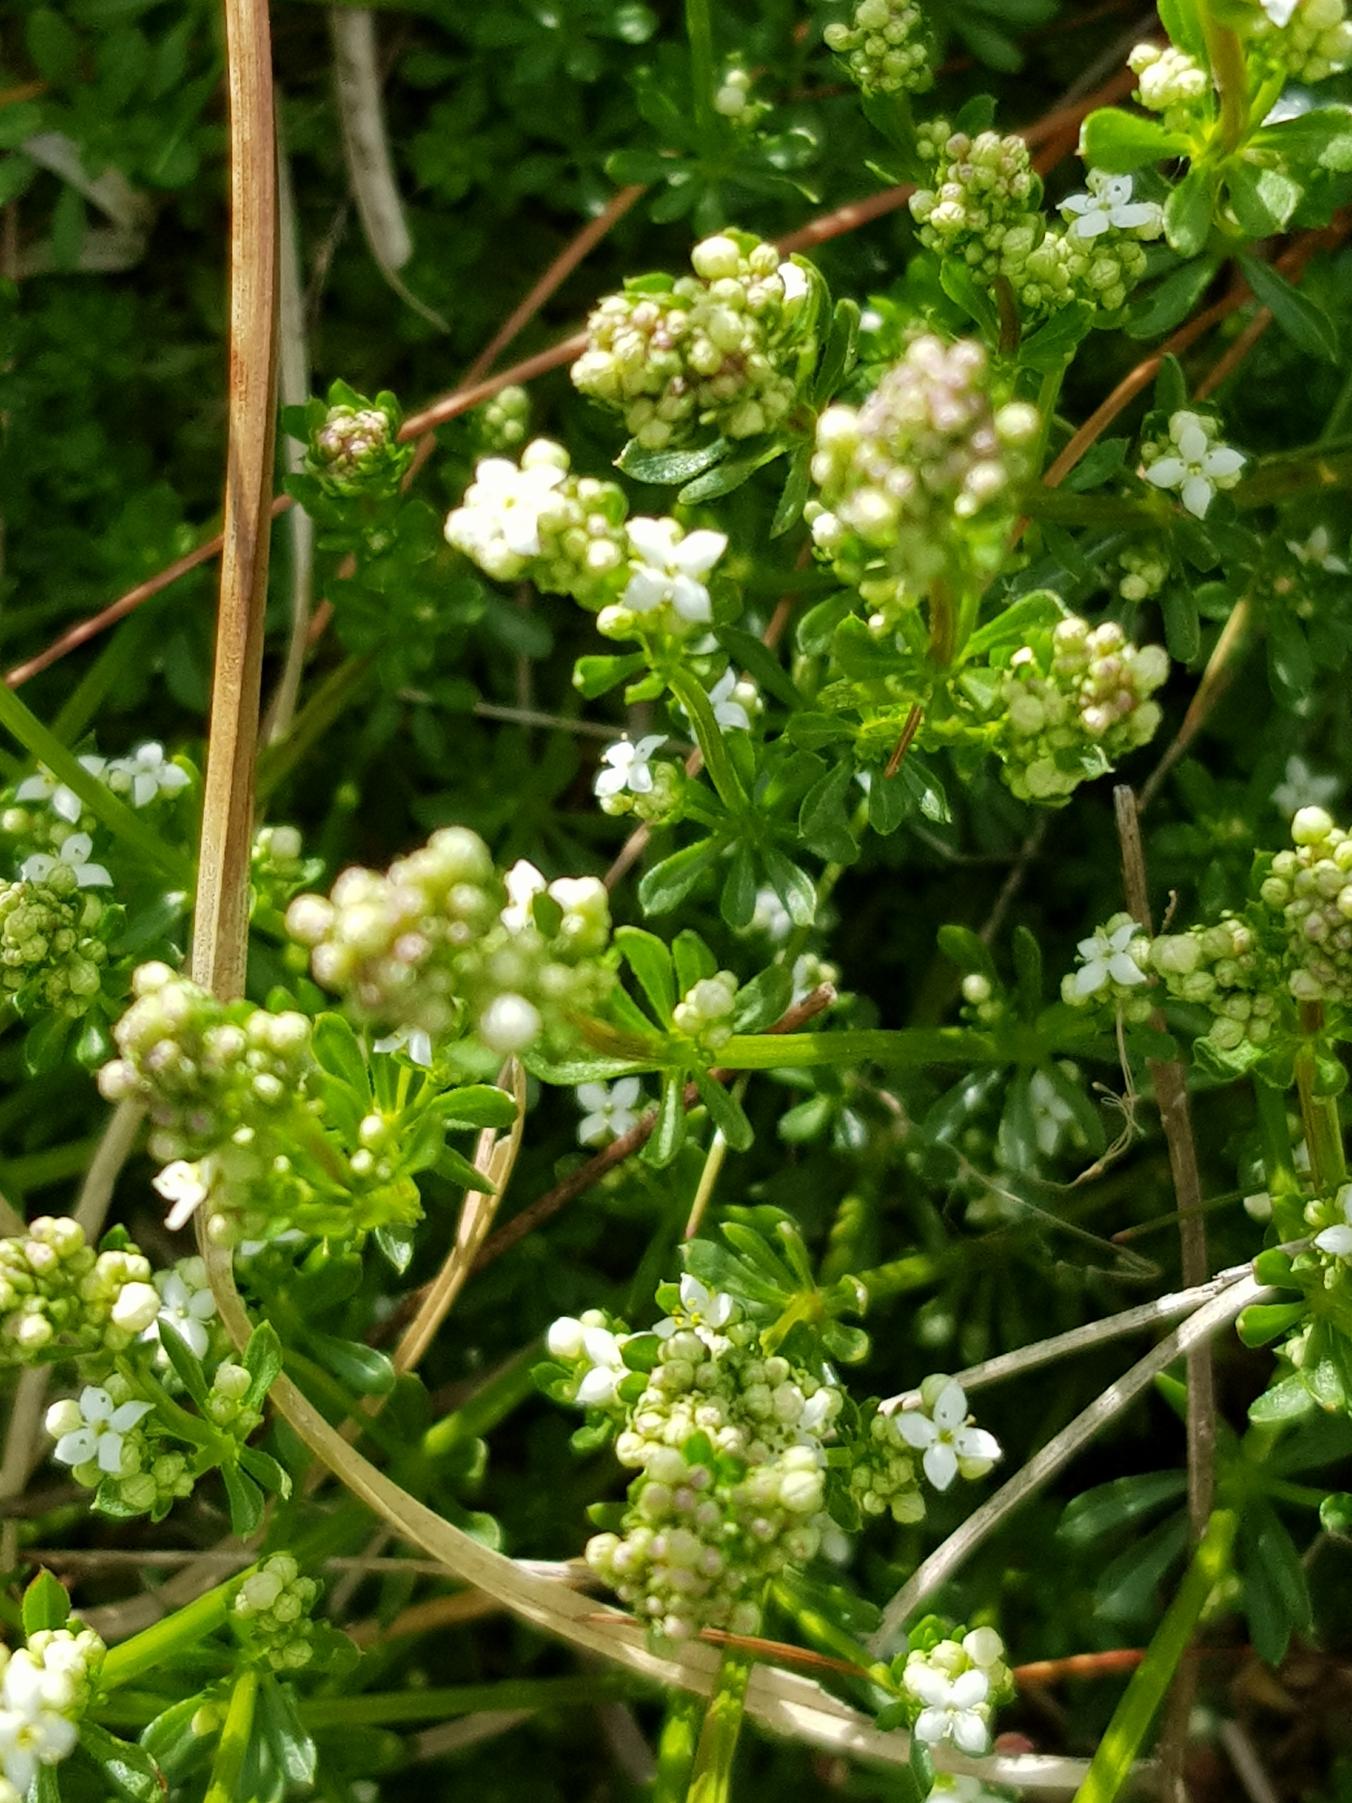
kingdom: Plantae
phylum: Tracheophyta
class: Magnoliopsida
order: Gentianales
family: Rubiaceae
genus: Galium
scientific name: Galium saxatile
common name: Lyng-snerre
